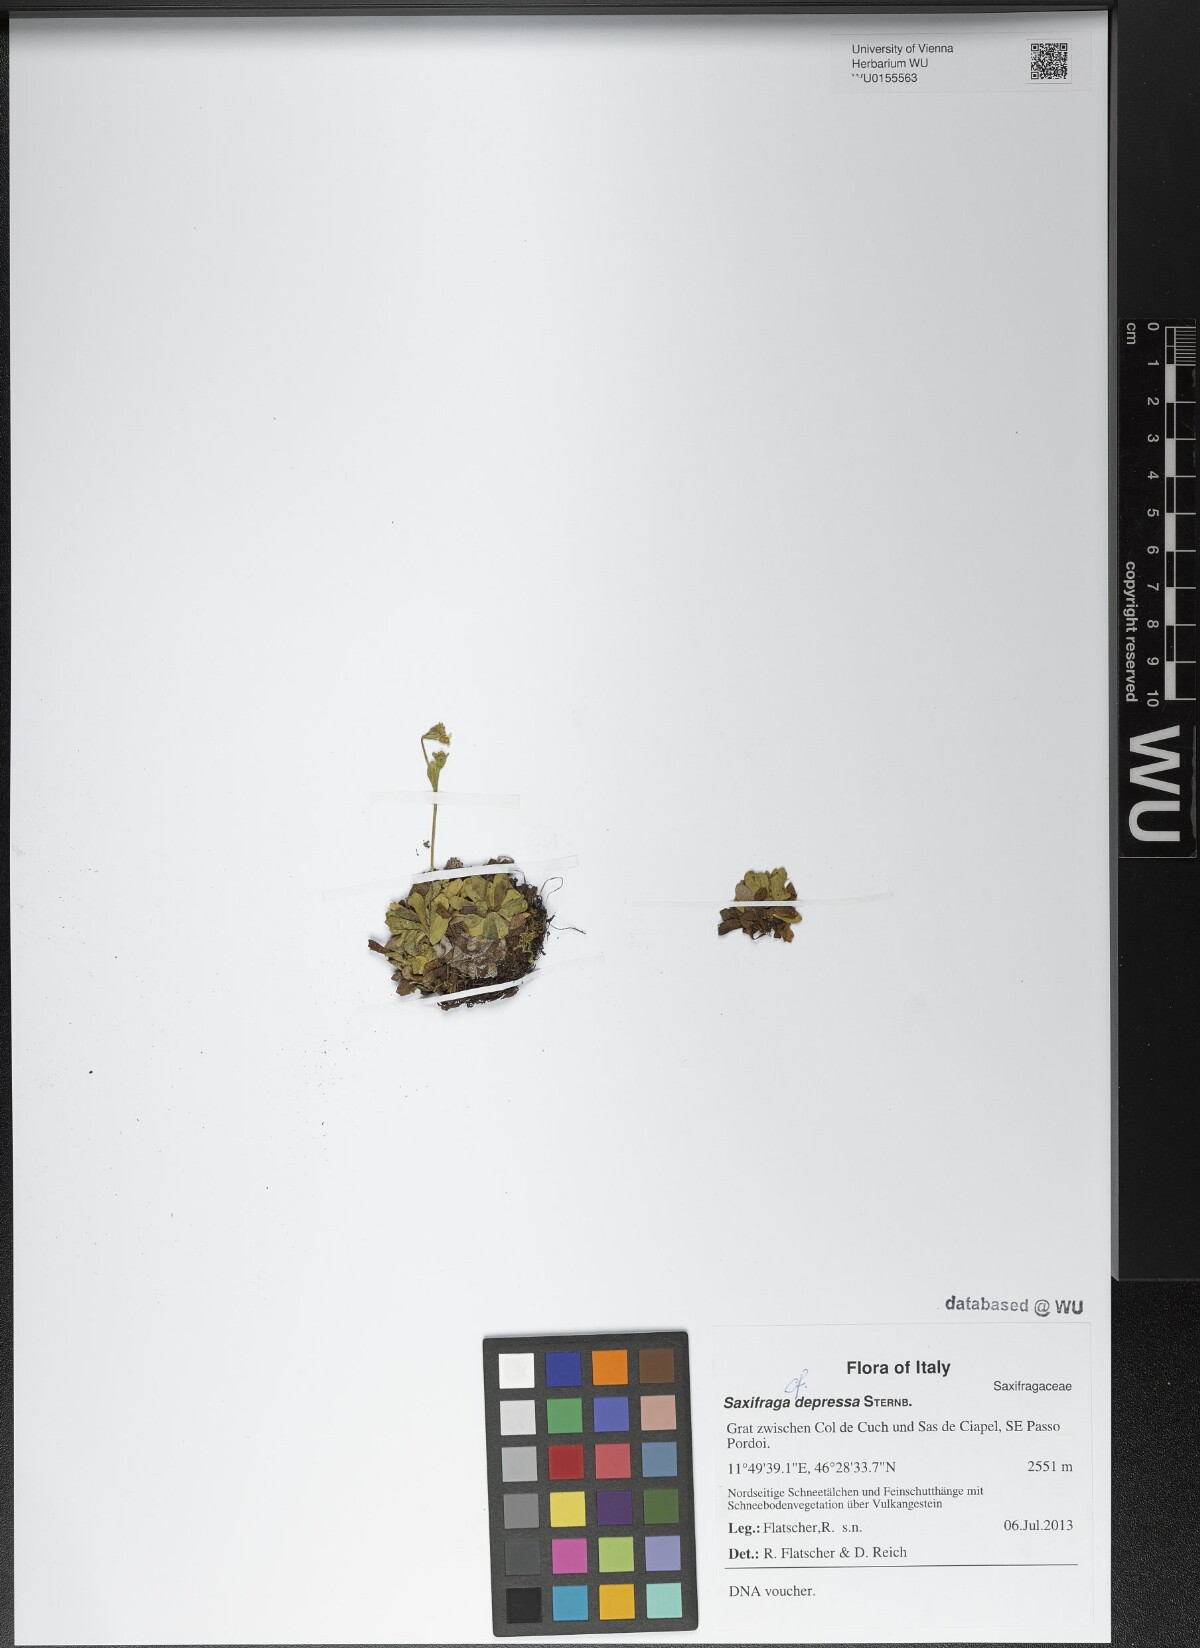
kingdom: Plantae
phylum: Tracheophyta
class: Magnoliopsida
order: Saxifragales
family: Saxifragaceae
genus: Saxifraga
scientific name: Saxifraga depressa
